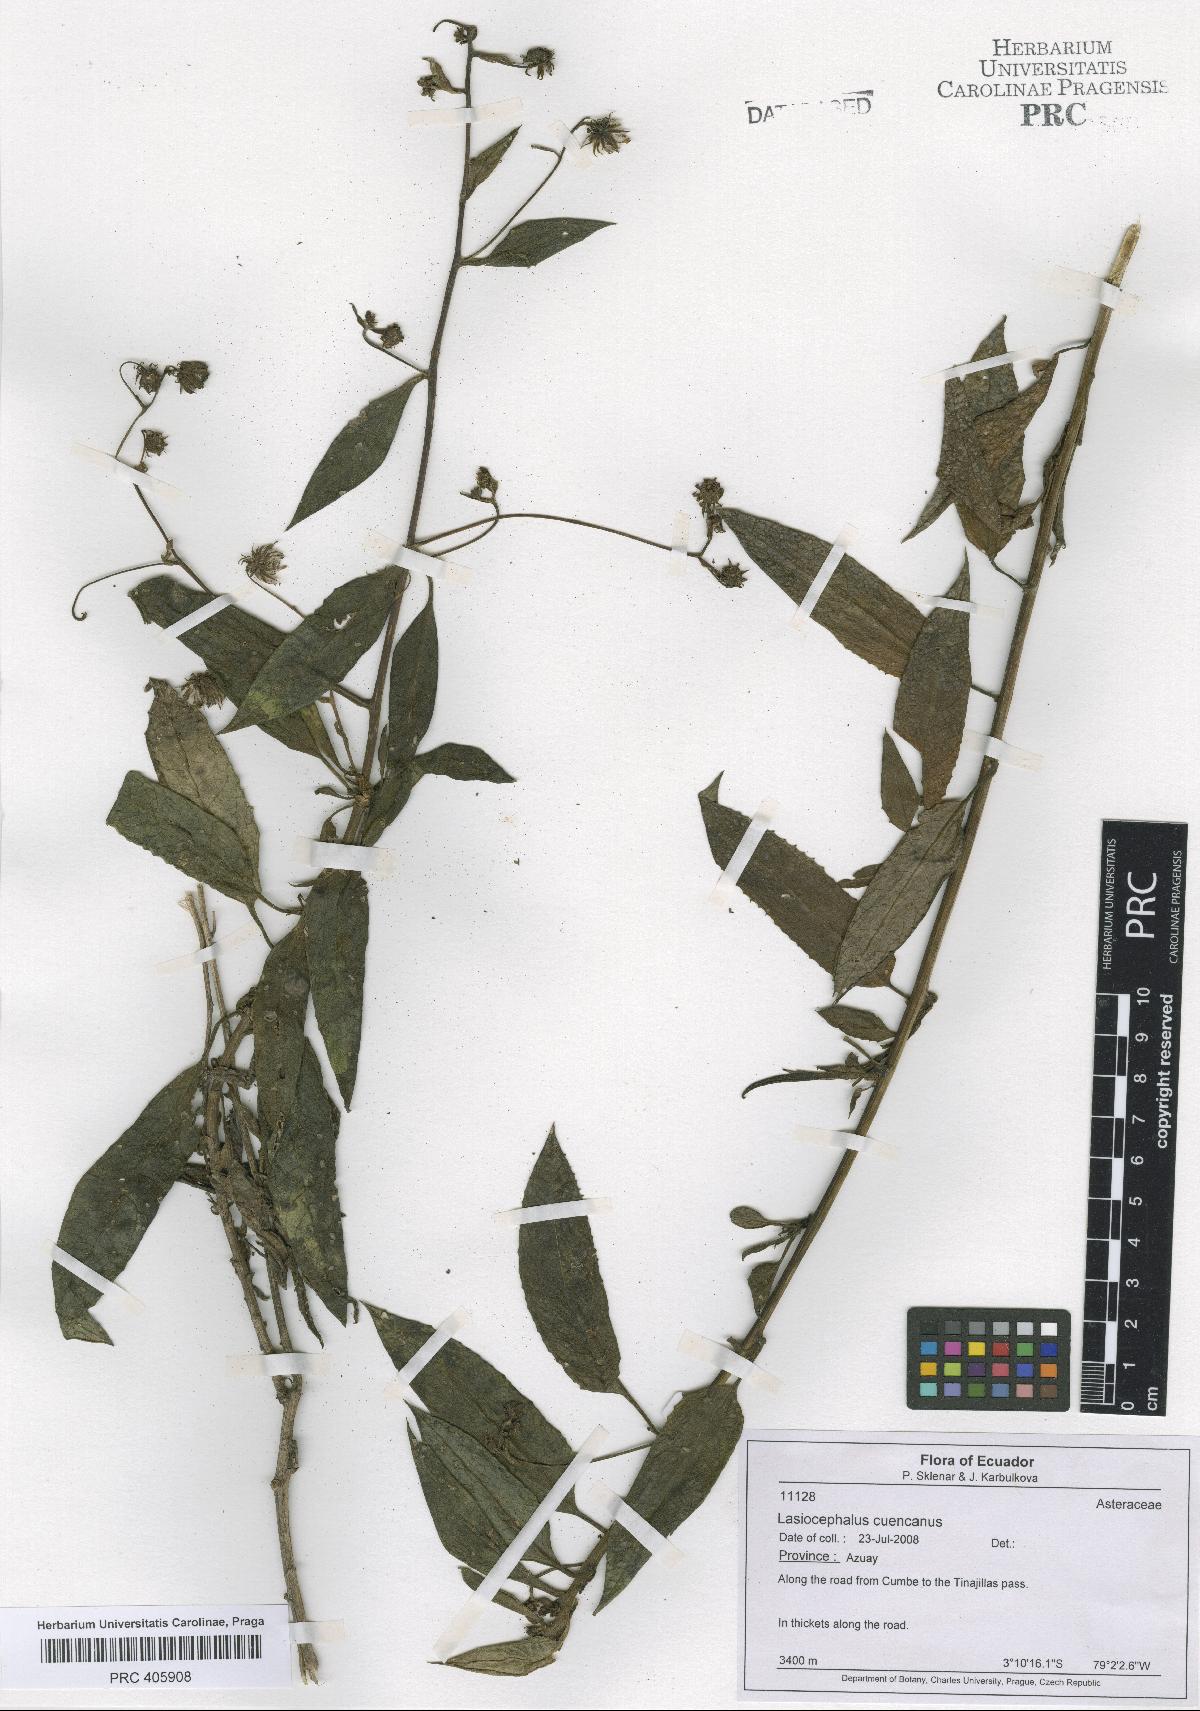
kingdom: Plantae
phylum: Tracheophyta
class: Magnoliopsida
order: Asterales
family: Asteraceae
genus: Aetheolaena
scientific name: Aetheolaena cuencana
